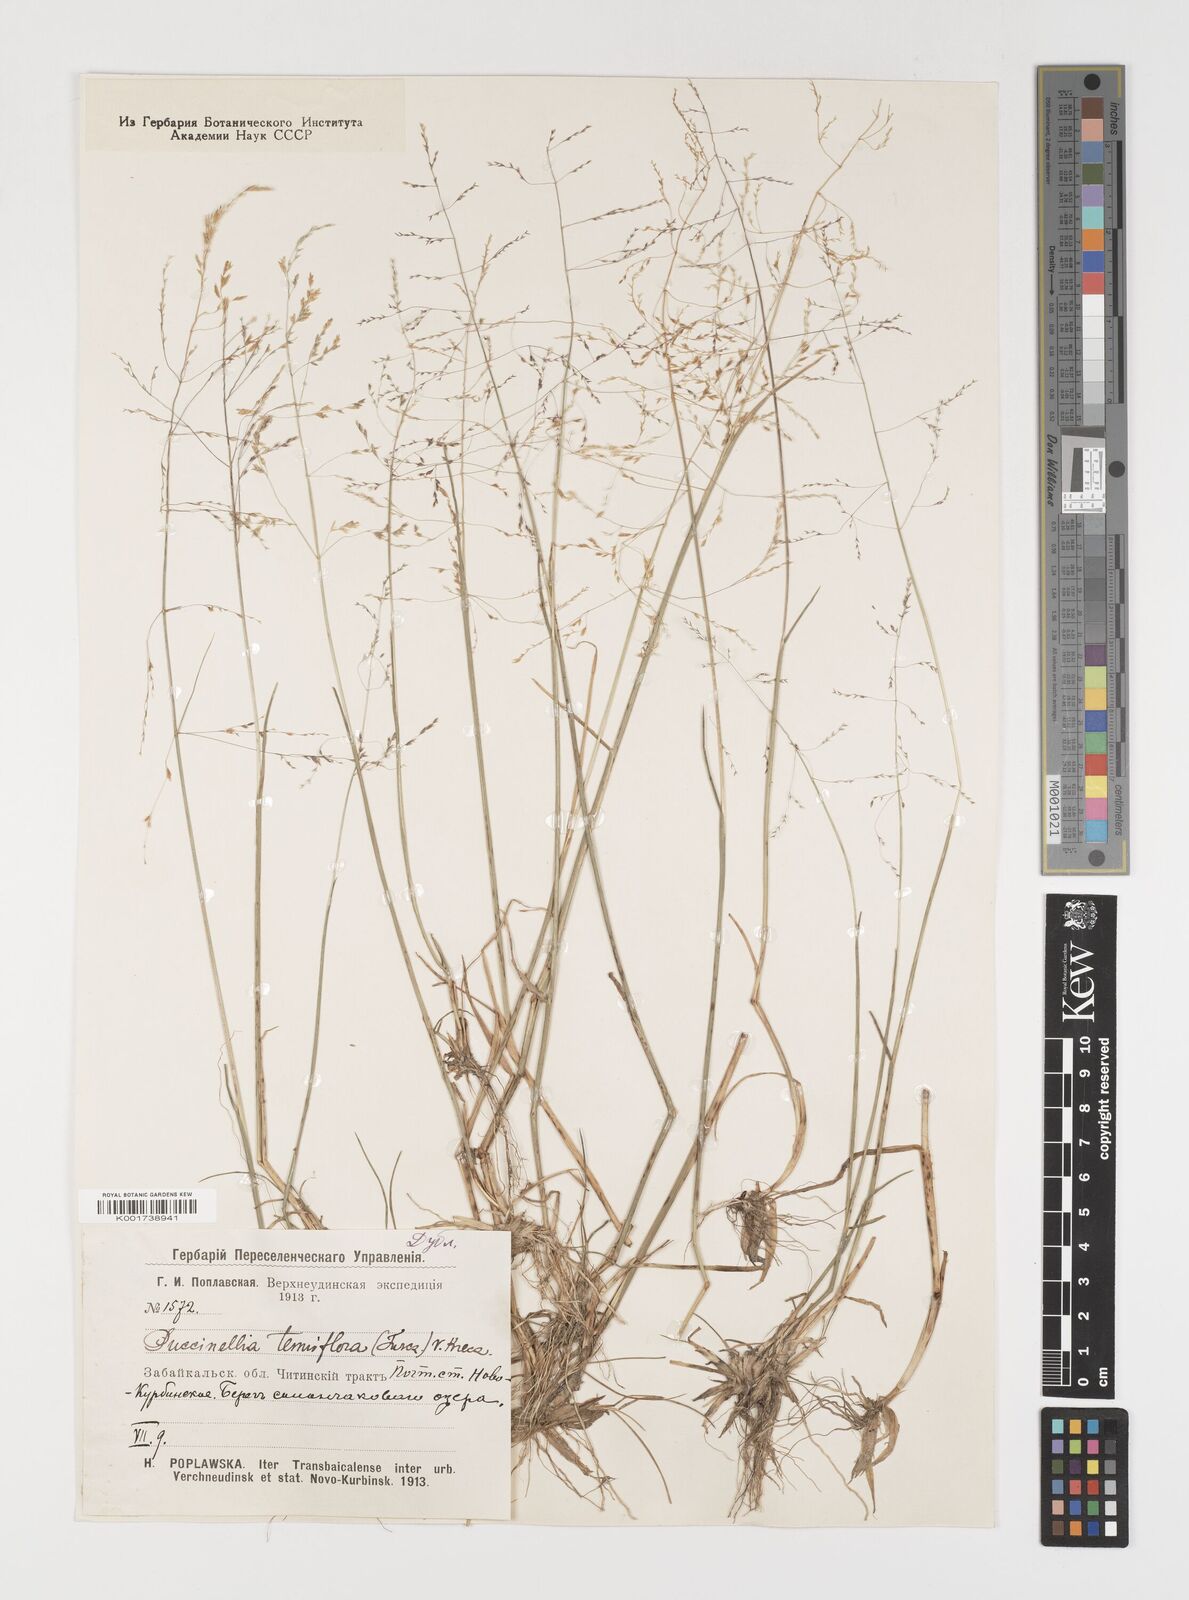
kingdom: Plantae
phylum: Tracheophyta
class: Liliopsida
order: Poales
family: Poaceae
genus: Puccinellia
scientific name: Puccinellia tenuiflora
